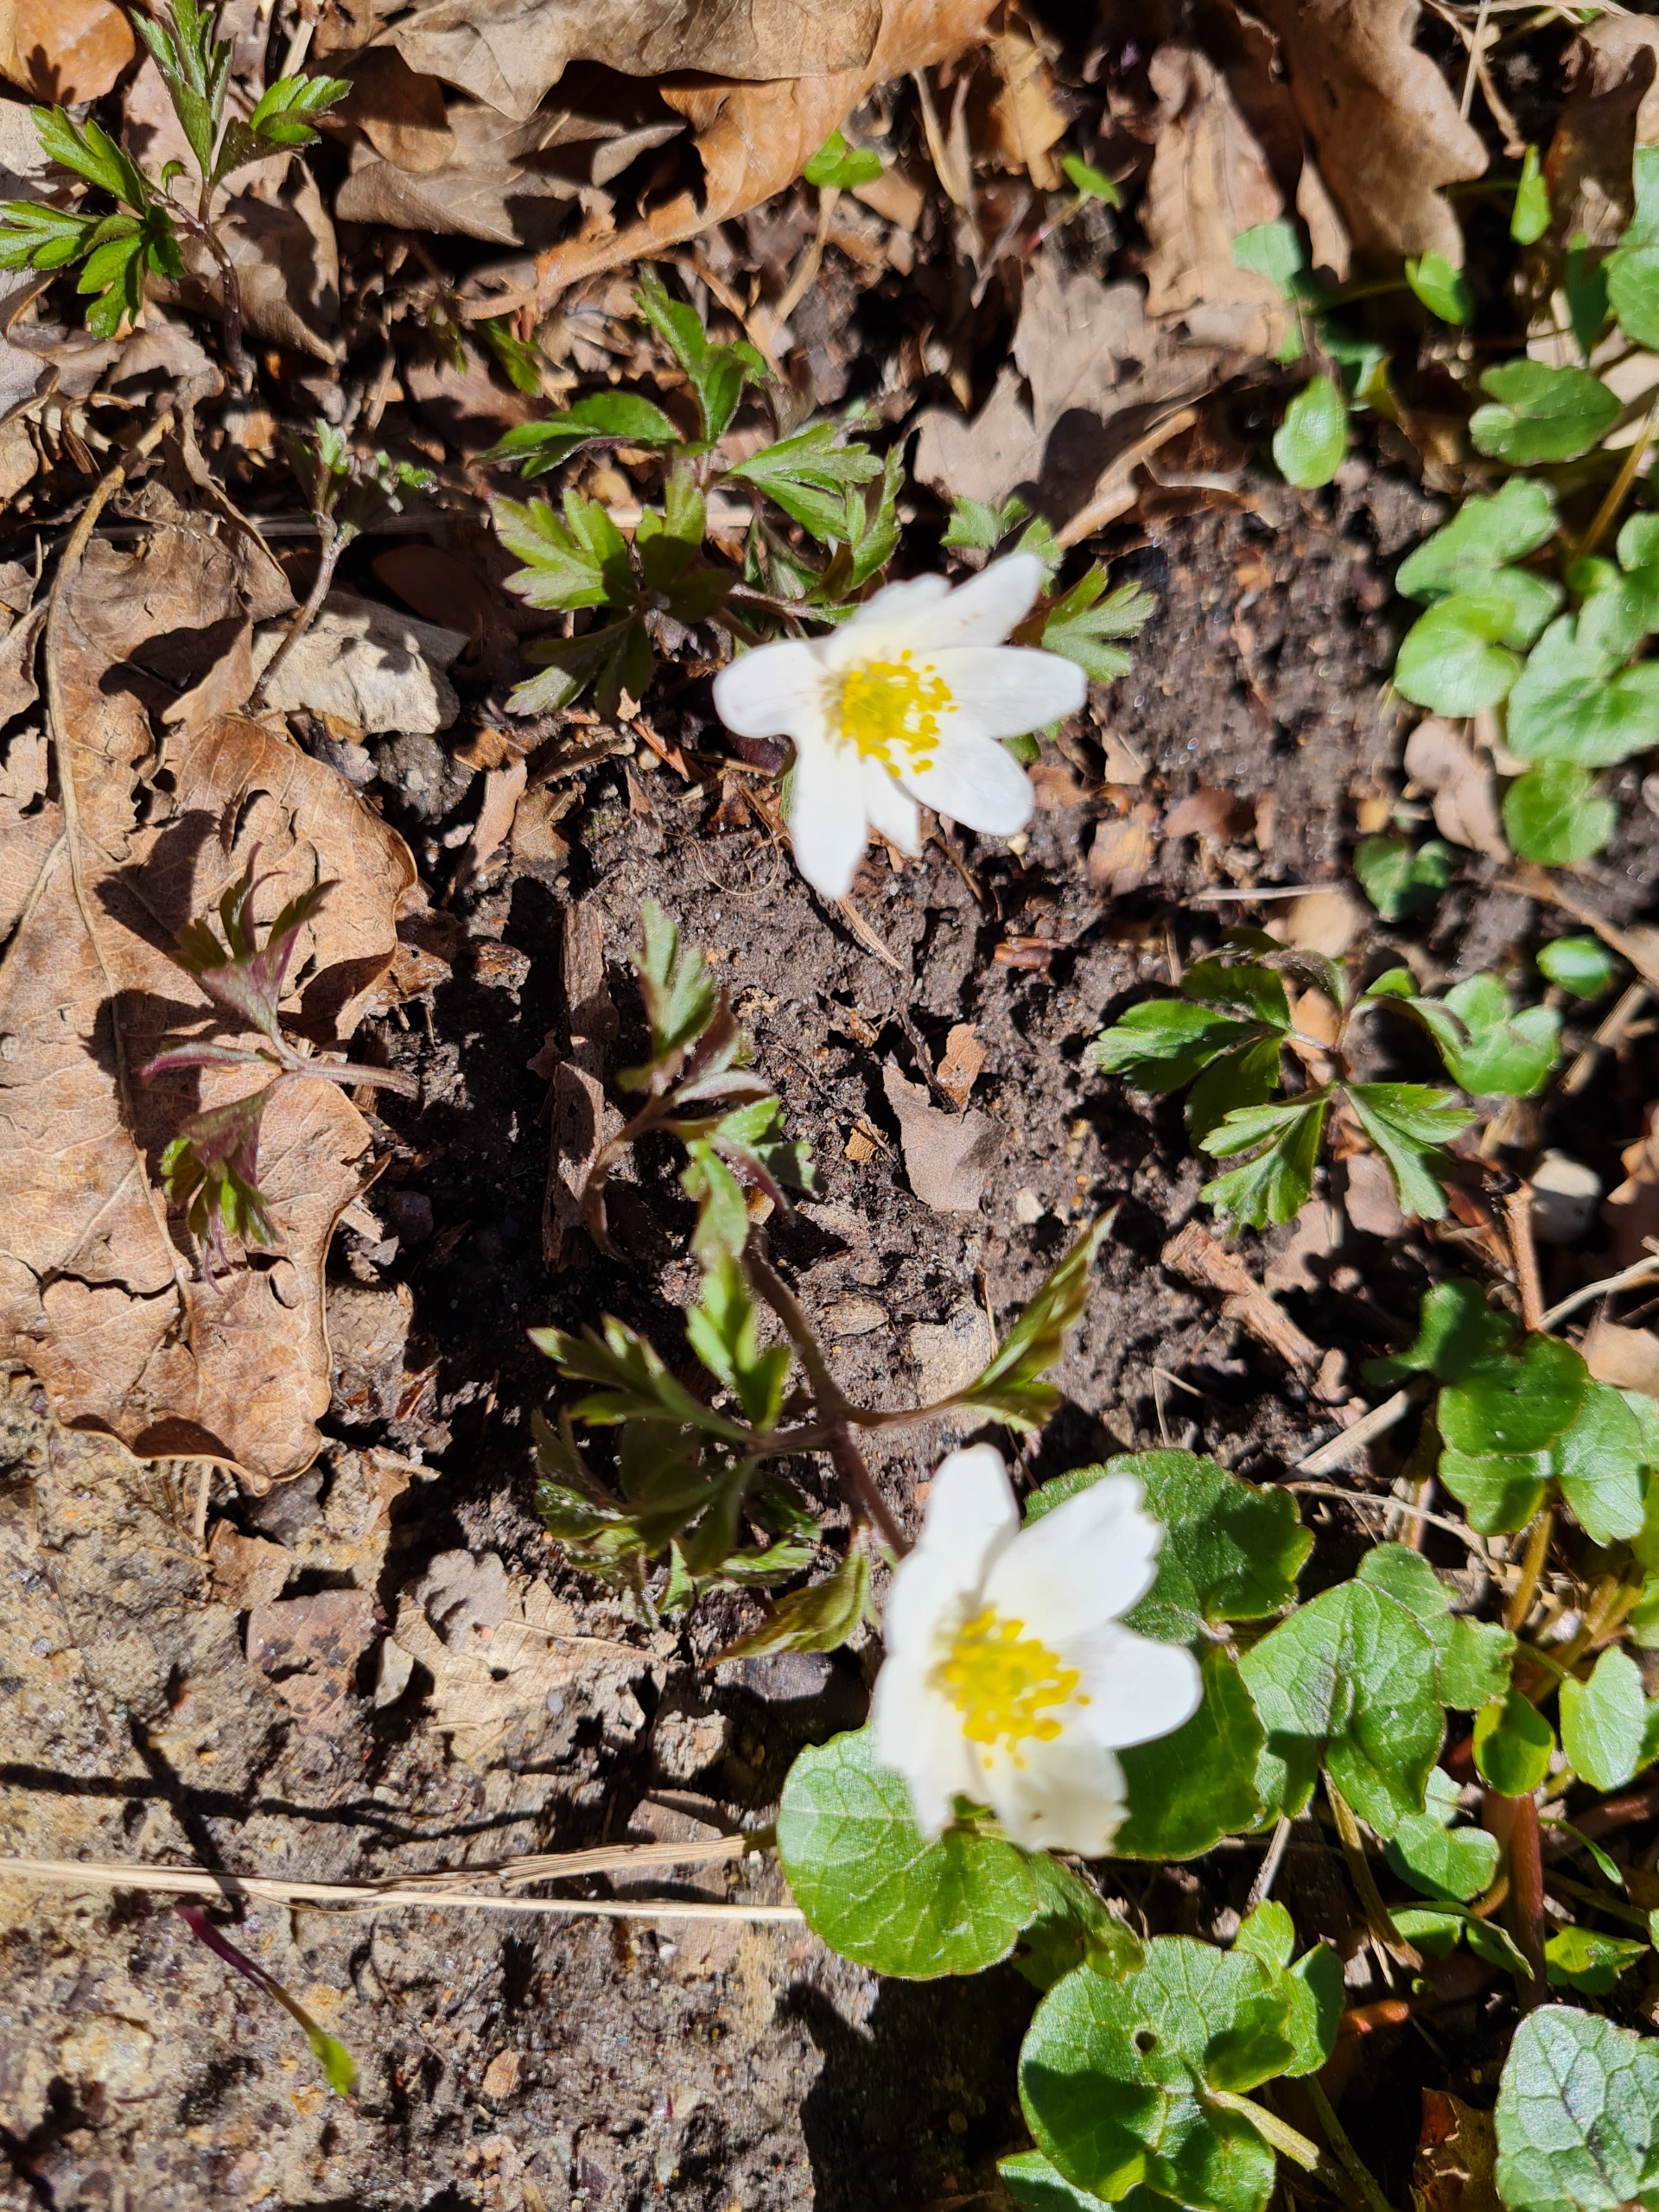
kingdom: Plantae
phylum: Tracheophyta
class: Magnoliopsida
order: Ranunculales
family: Ranunculaceae
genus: Anemone
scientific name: Anemone nemorosa
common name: Hvid anemone
